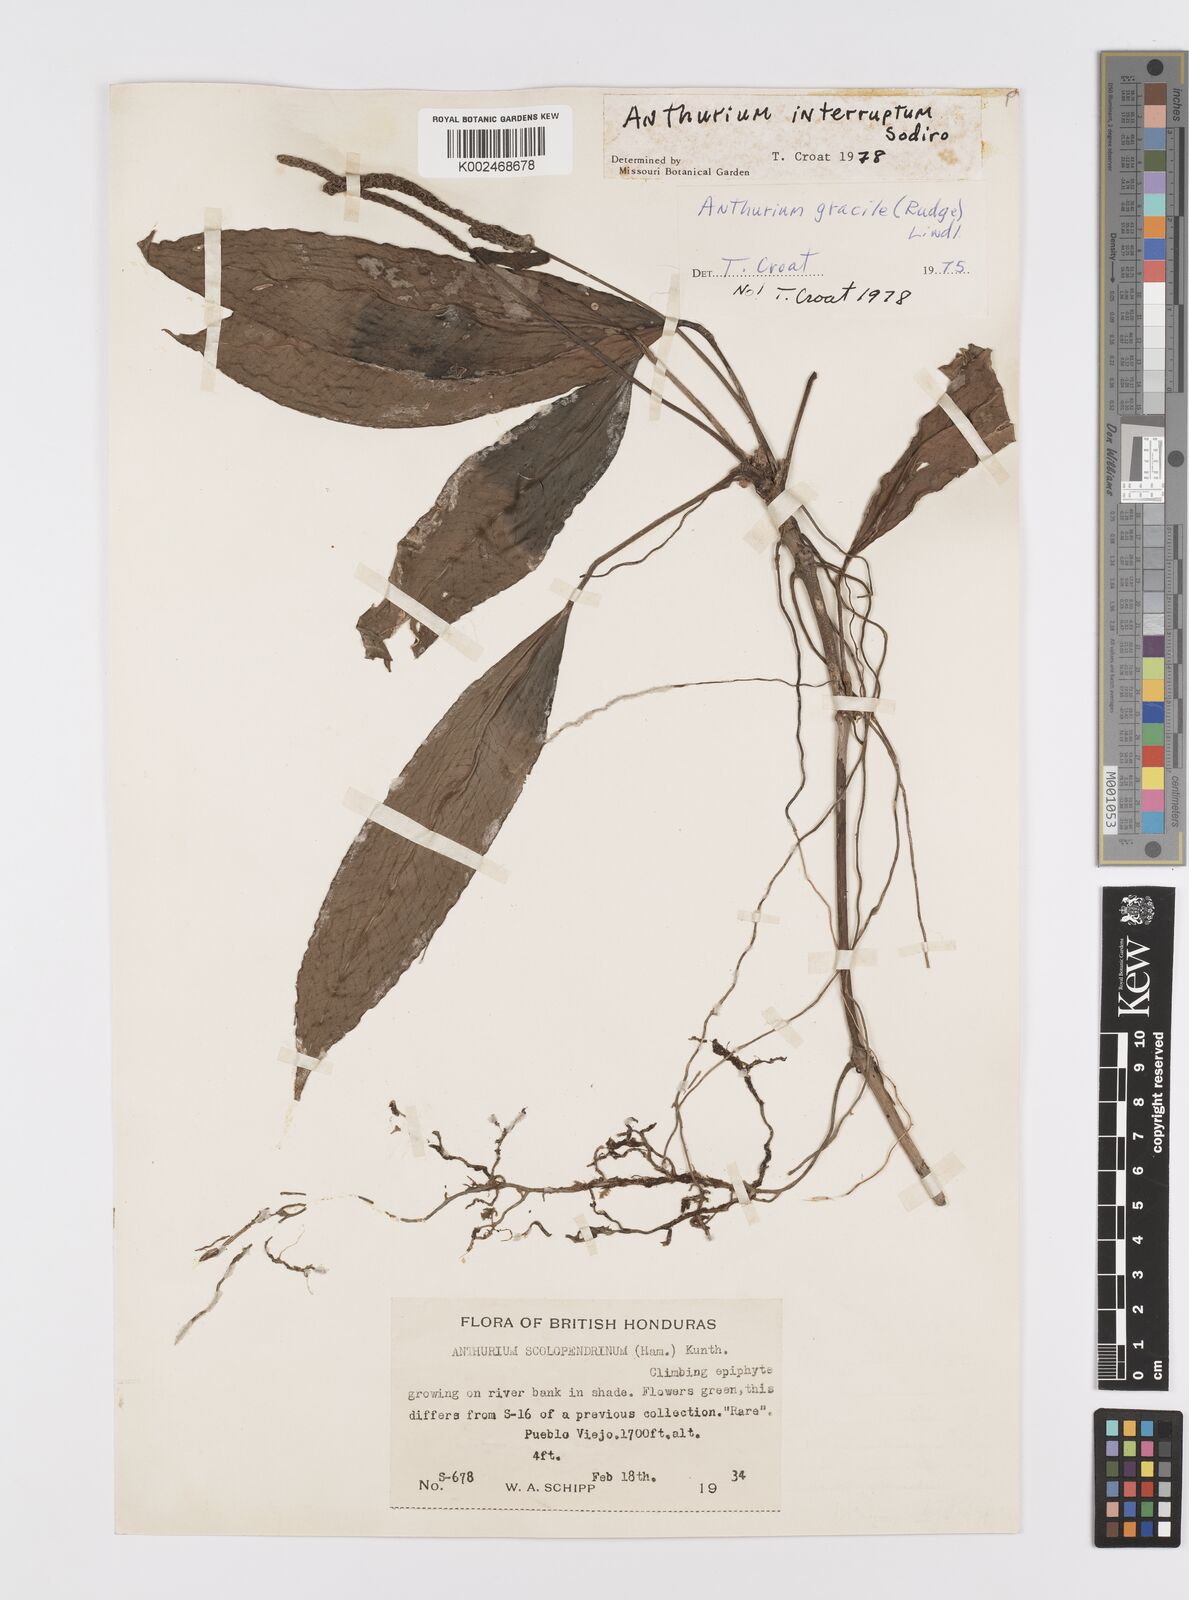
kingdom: Plantae
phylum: Tracheophyta
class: Liliopsida
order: Alismatales
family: Araceae
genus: Anthurium
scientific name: Anthurium interruptum
